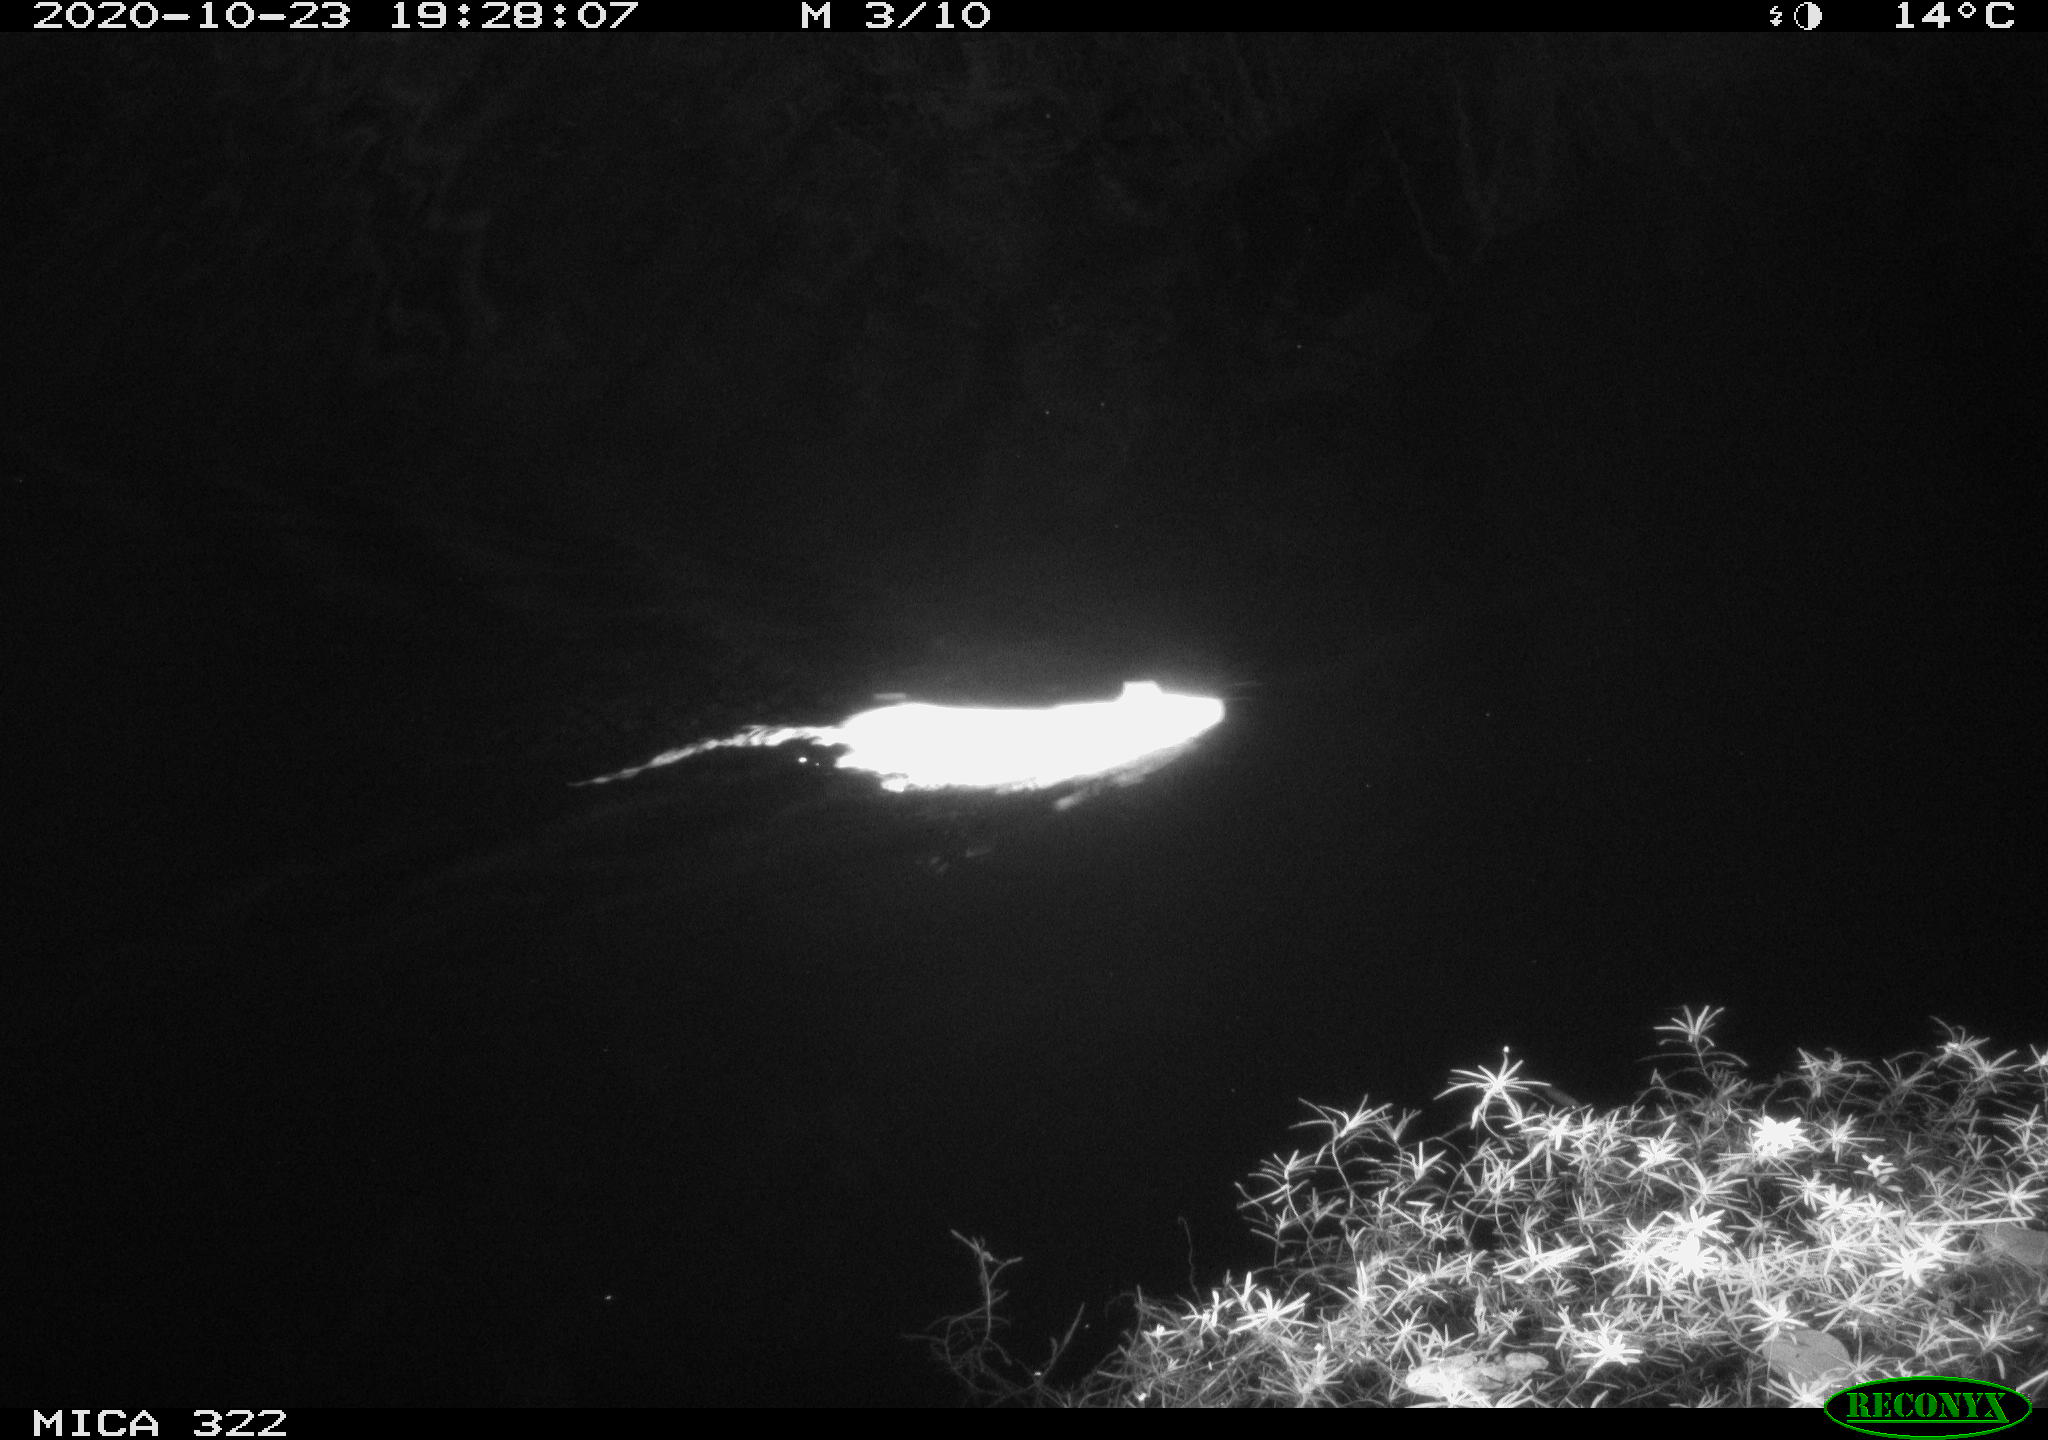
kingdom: Animalia
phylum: Chordata
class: Mammalia
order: Rodentia
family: Muridae
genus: Rattus
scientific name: Rattus norvegicus
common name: Brown rat
